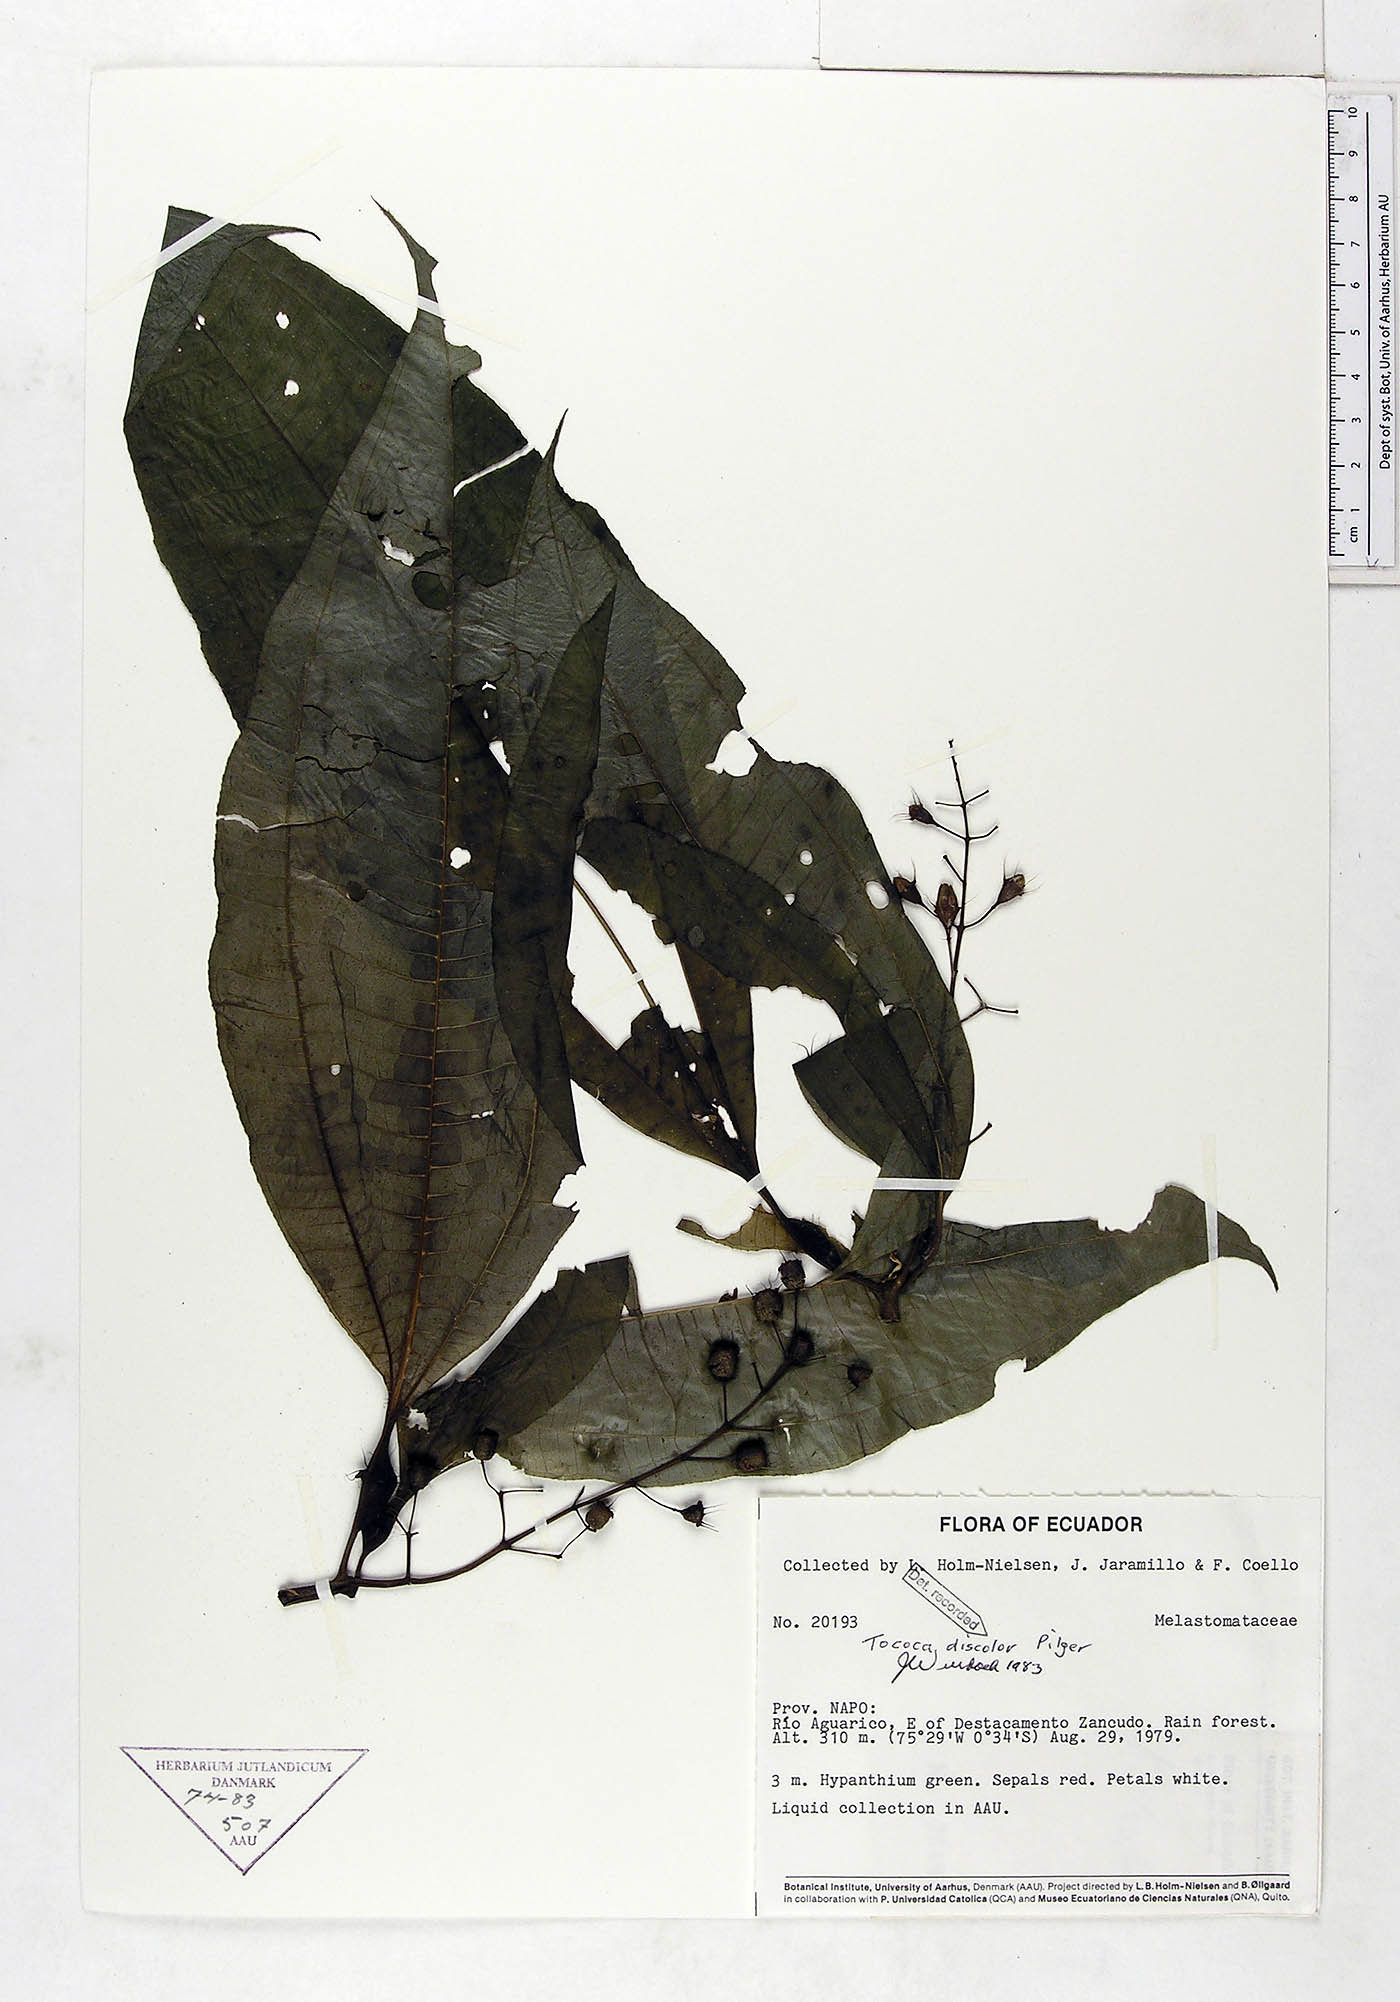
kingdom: Plantae
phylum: Tracheophyta
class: Magnoliopsida
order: Myrtales
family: Melastomataceae
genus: Miconia
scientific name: Miconia tococa
